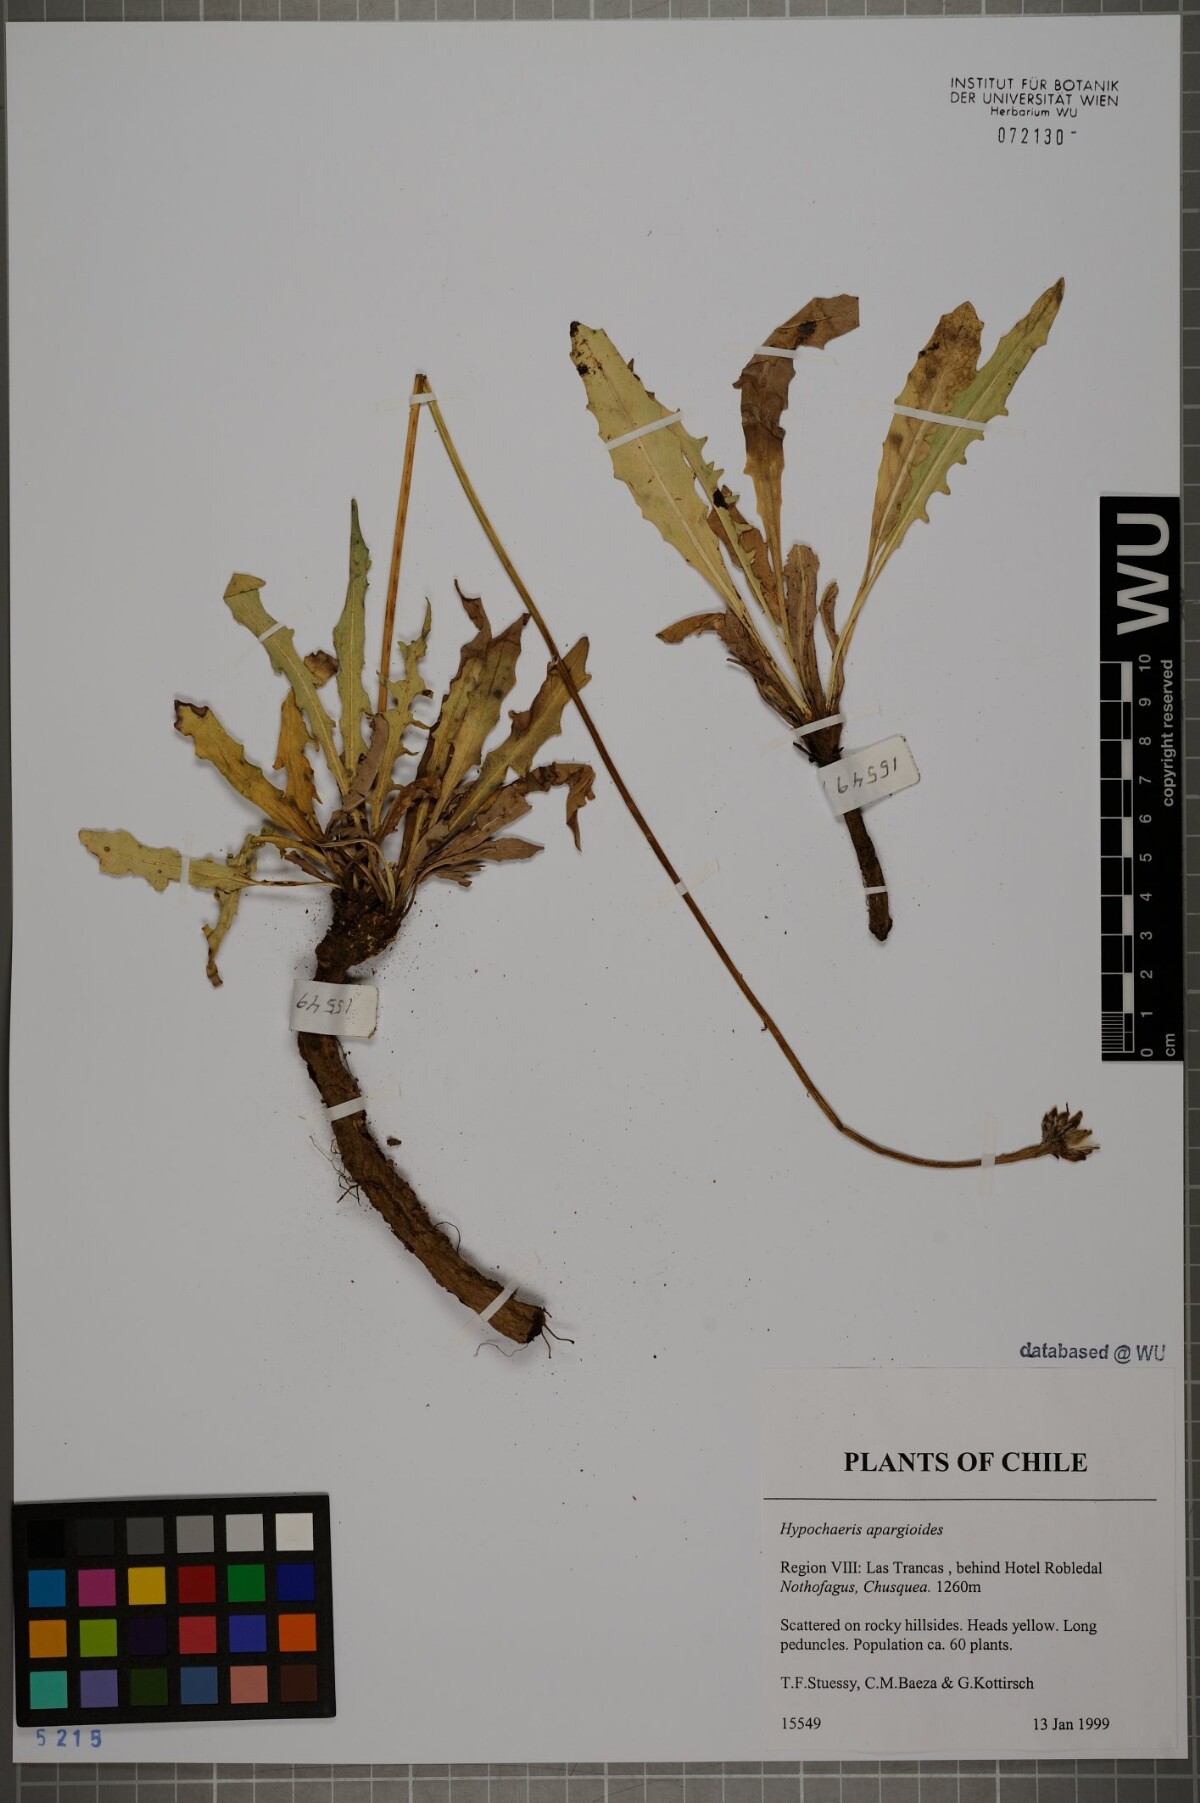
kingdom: Plantae
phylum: Tracheophyta
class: Magnoliopsida
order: Asterales
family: Asteraceae
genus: Hypochaeris
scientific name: Hypochaeris apargioides
